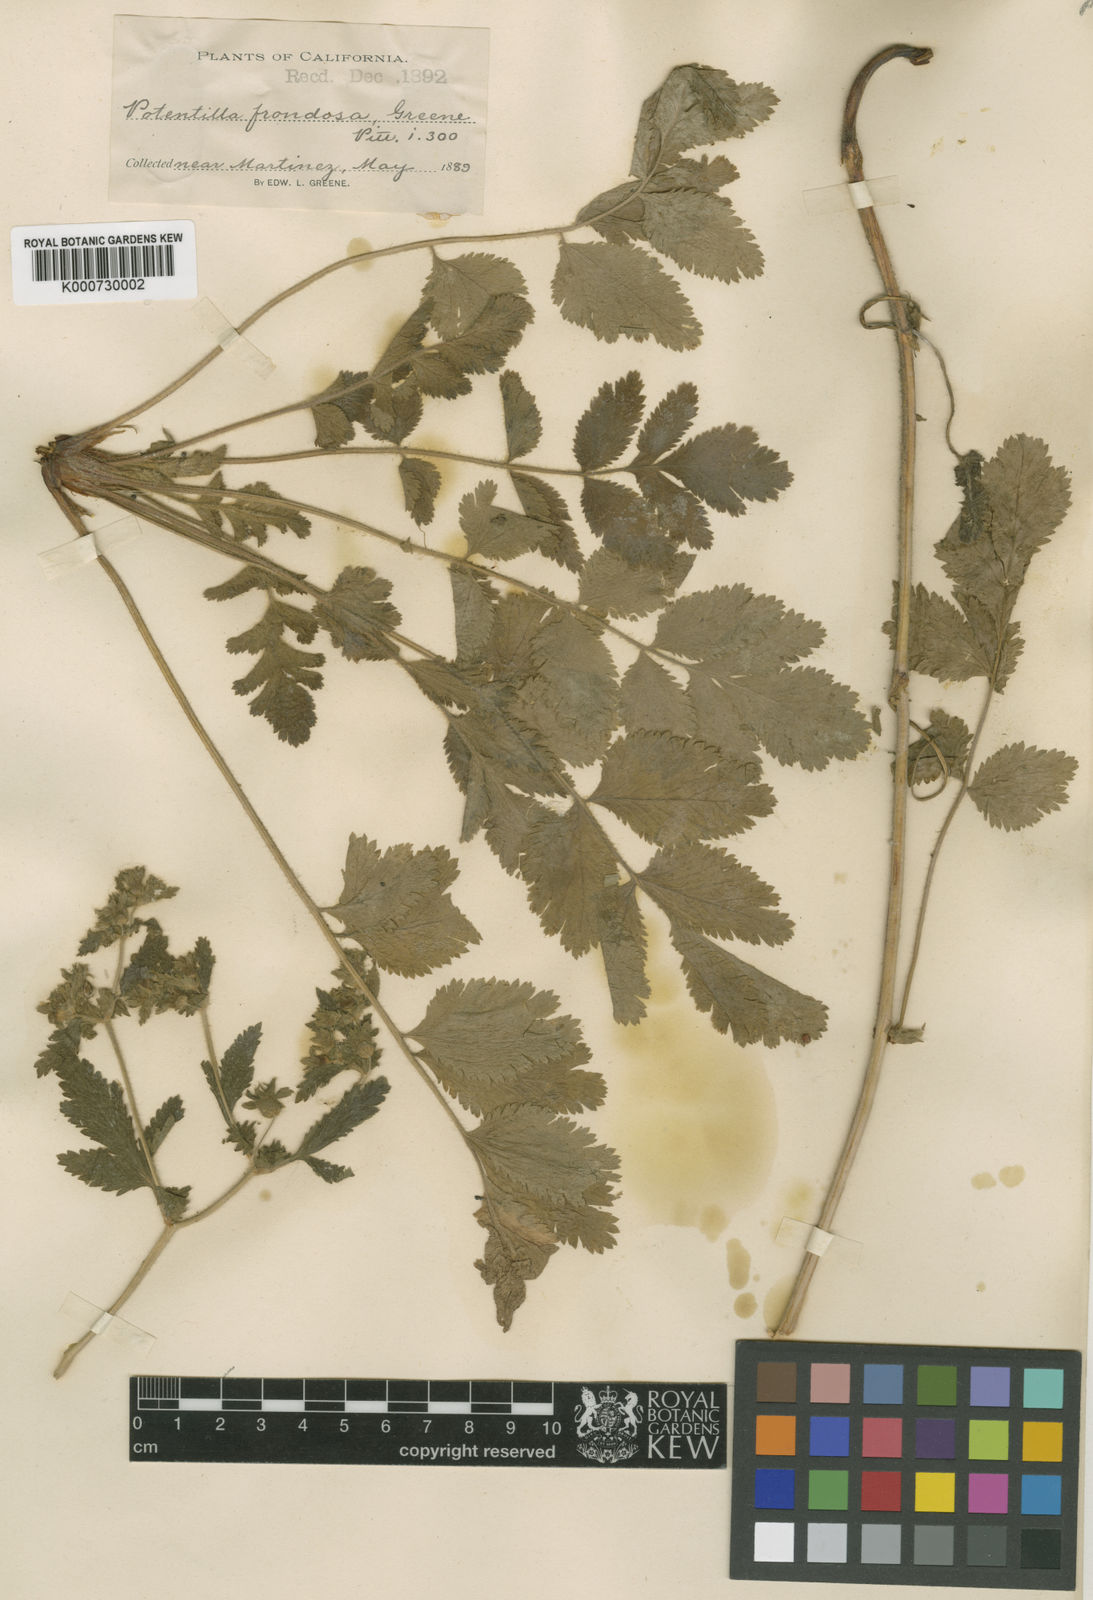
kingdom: Plantae
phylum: Tracheophyta
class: Magnoliopsida
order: Rosales
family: Rosaceae
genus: Potentilla
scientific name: Potentilla californica
